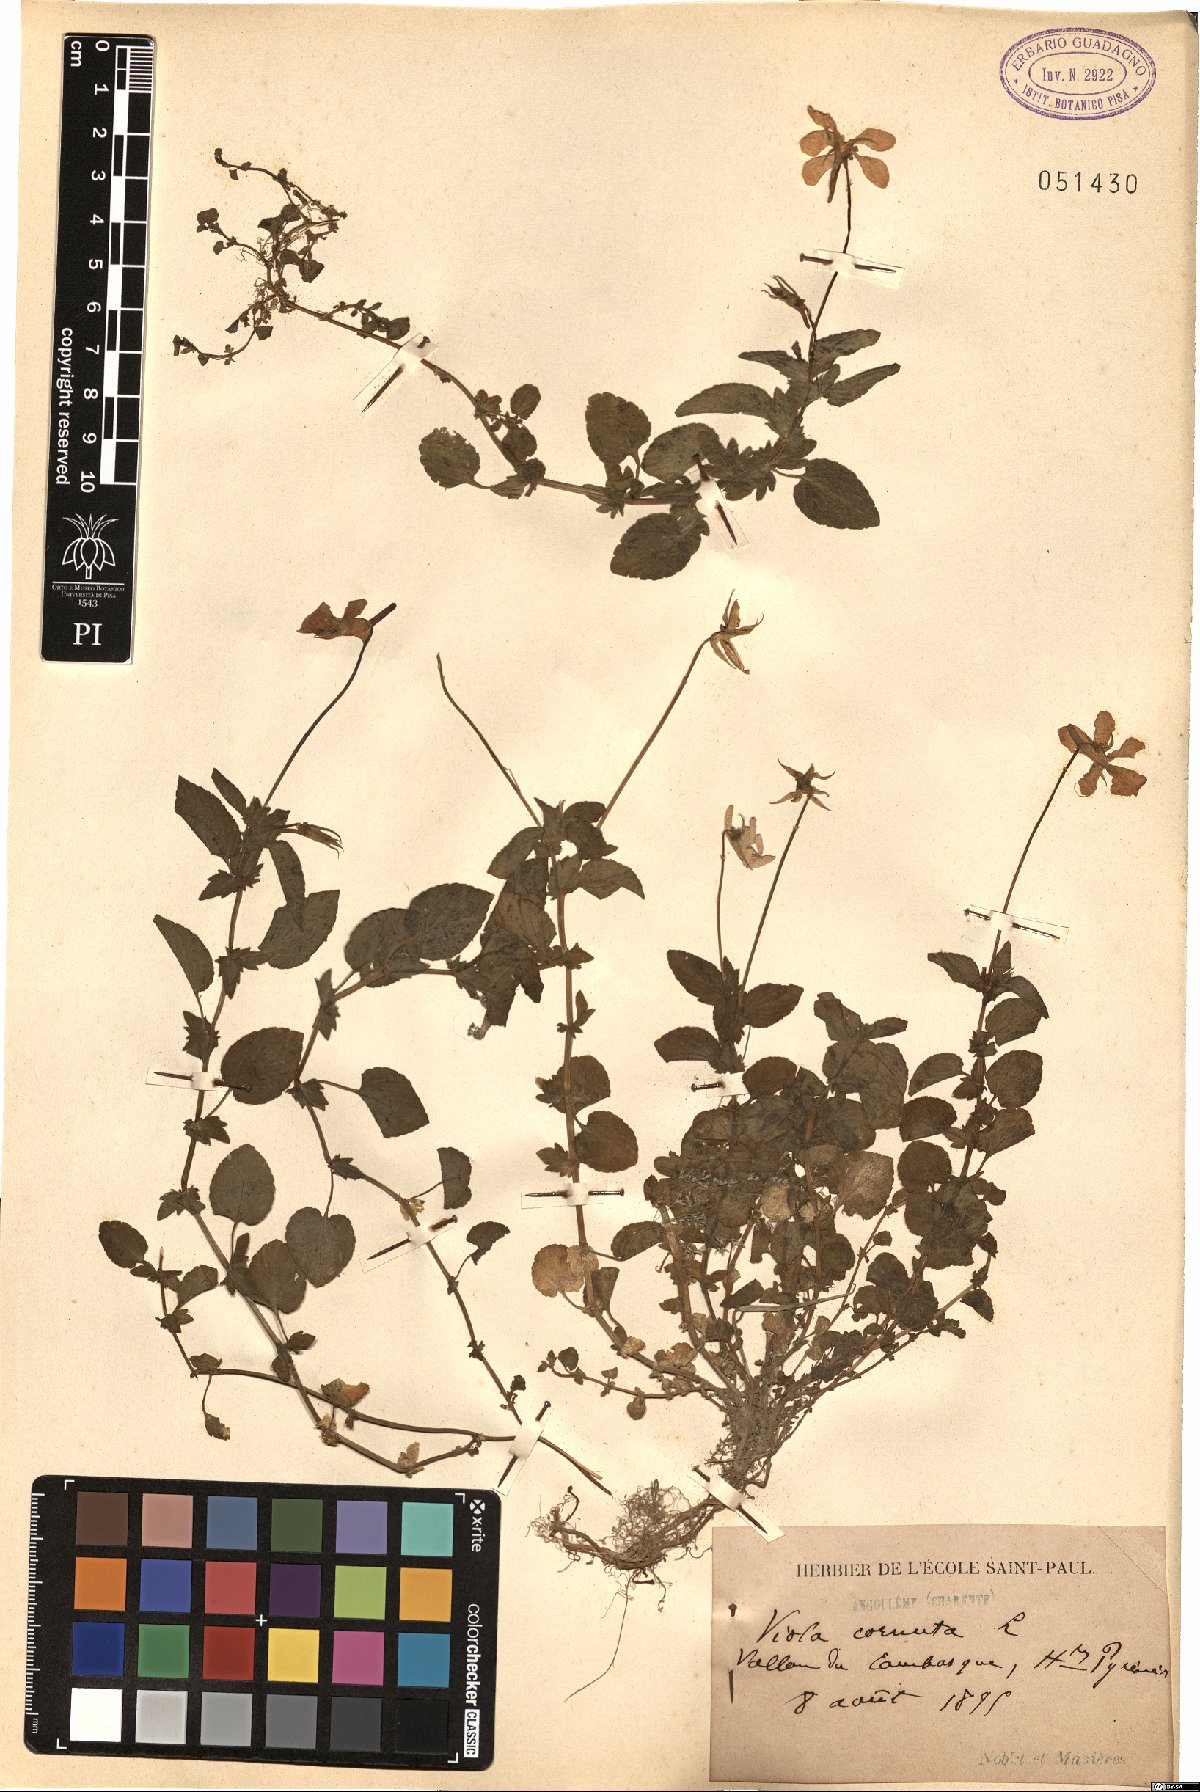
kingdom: Plantae
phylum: Tracheophyta
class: Magnoliopsida
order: Malpighiales
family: Violaceae
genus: Viola
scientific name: Viola cornuta
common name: Horned pansy
